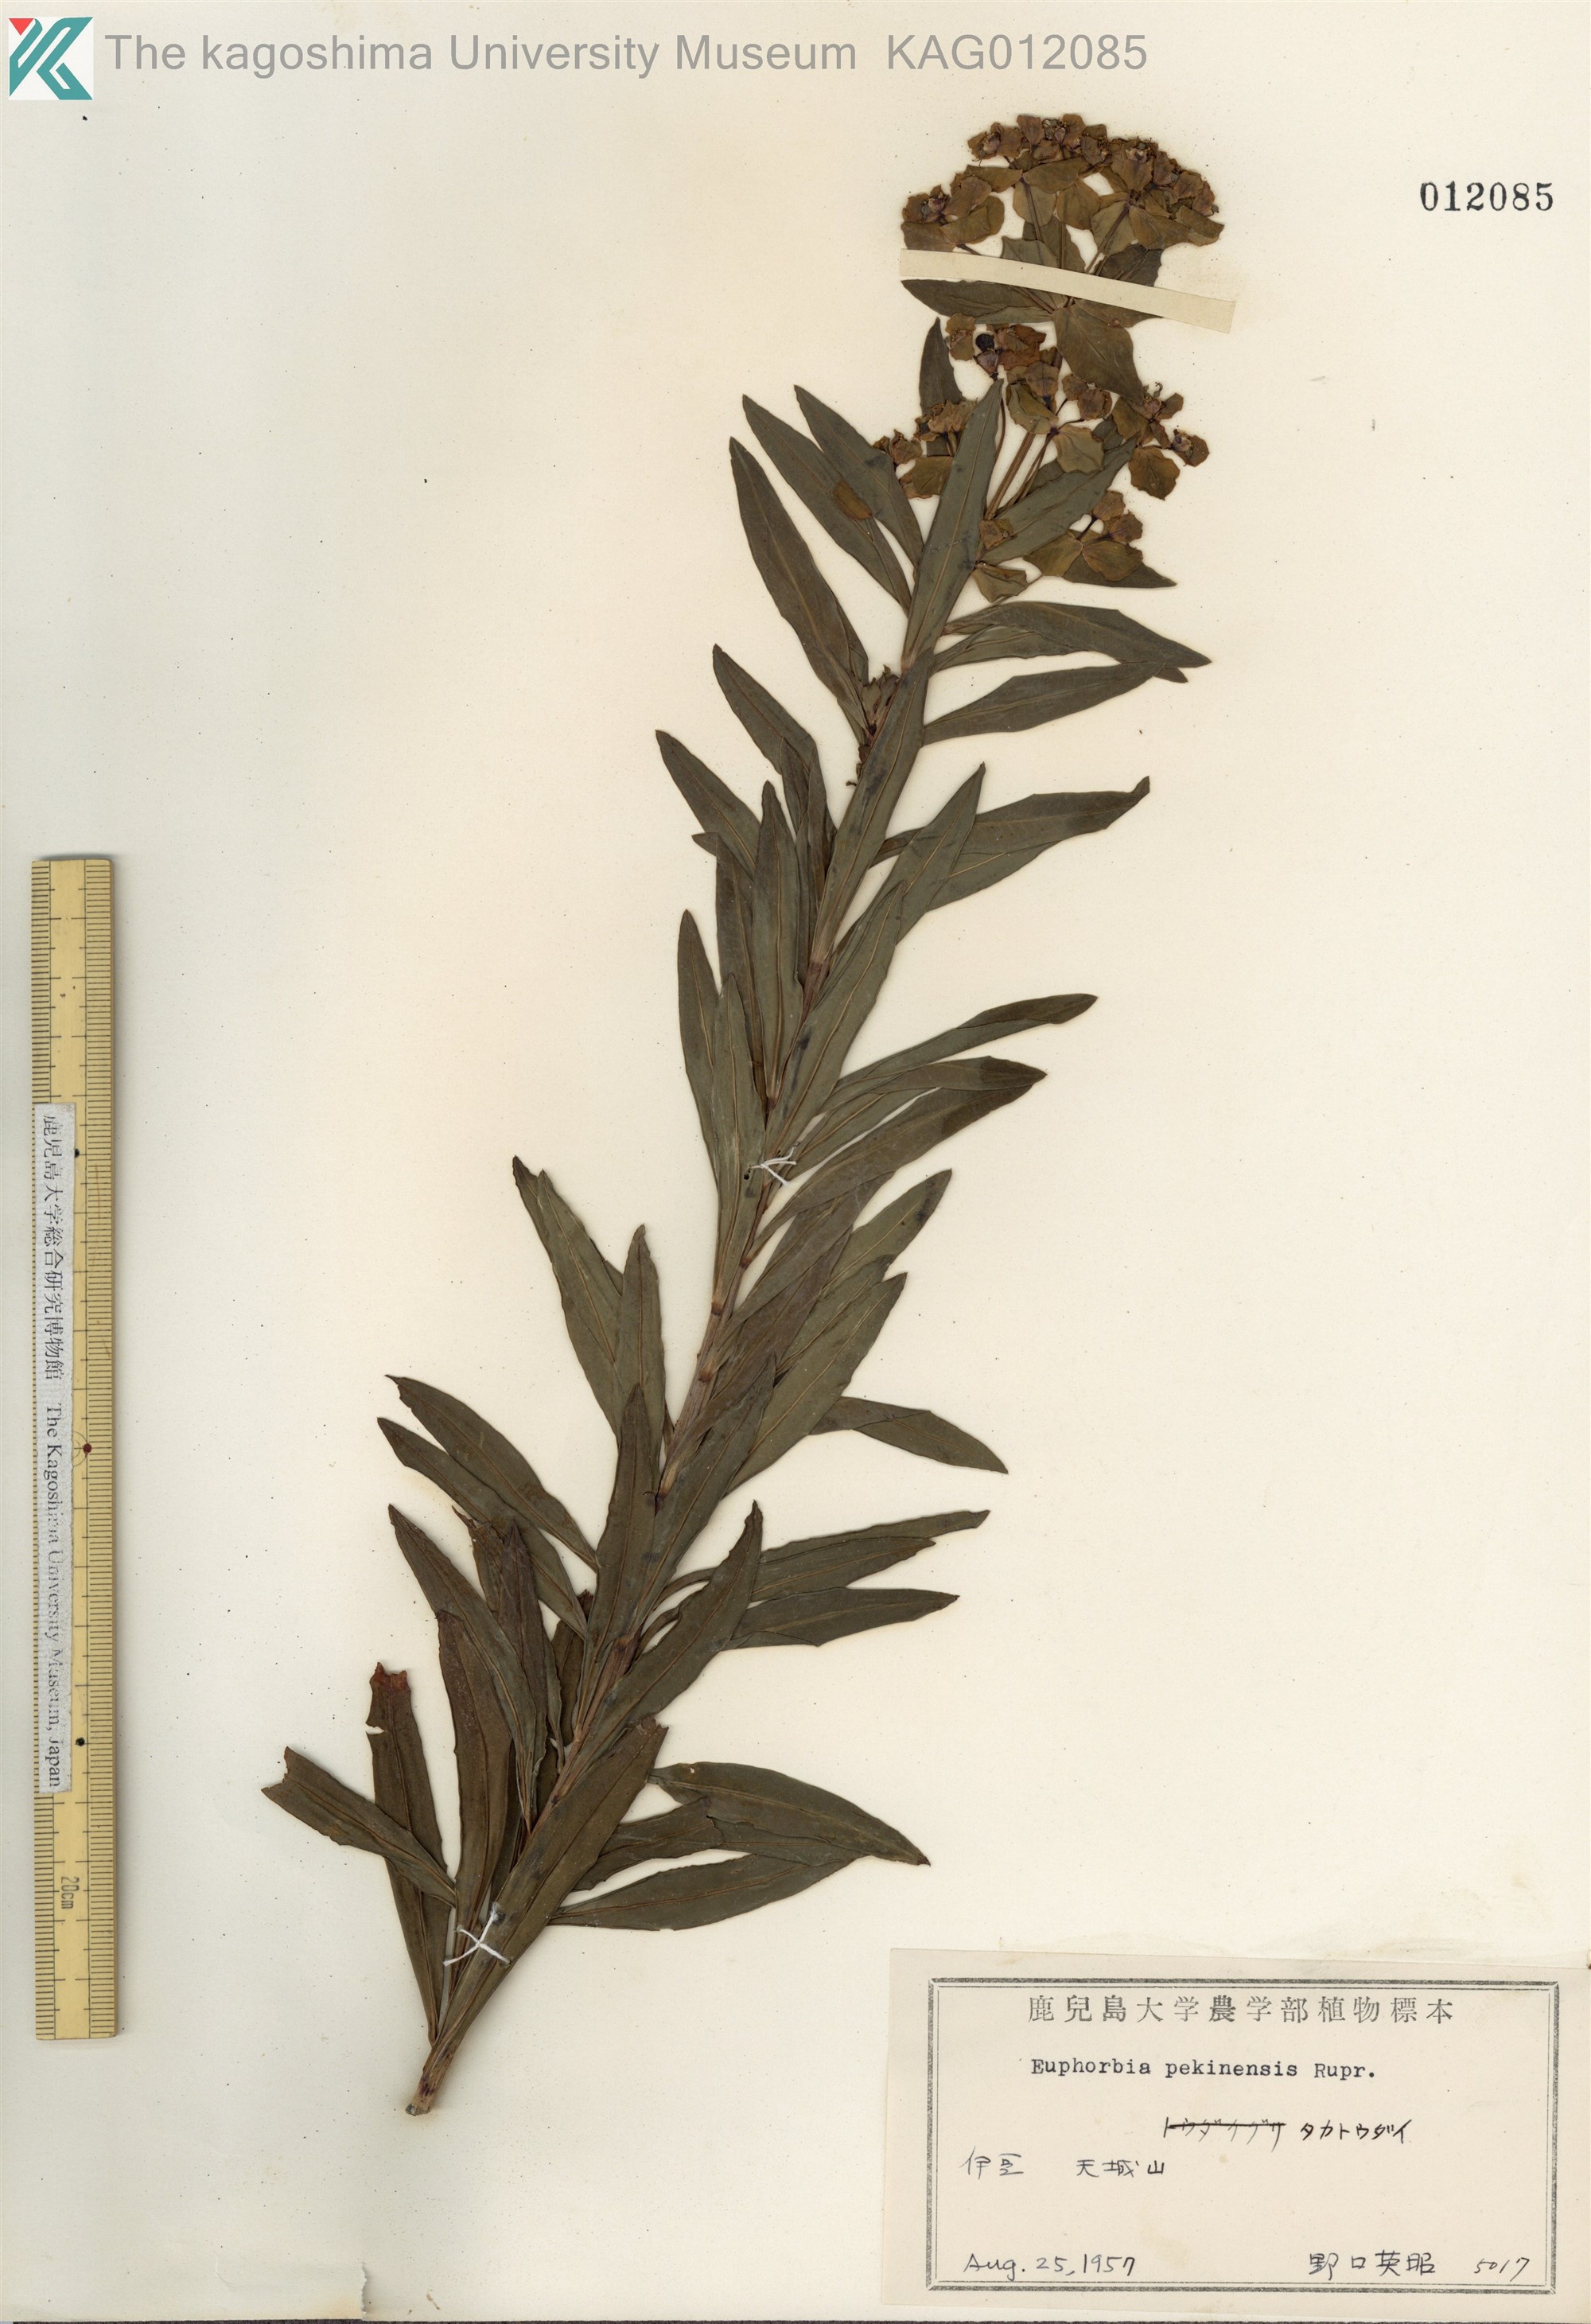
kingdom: Plantae
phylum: Tracheophyta
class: Magnoliopsida
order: Malpighiales
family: Euphorbiaceae
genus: Euphorbia
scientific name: Euphorbia pekinensis
